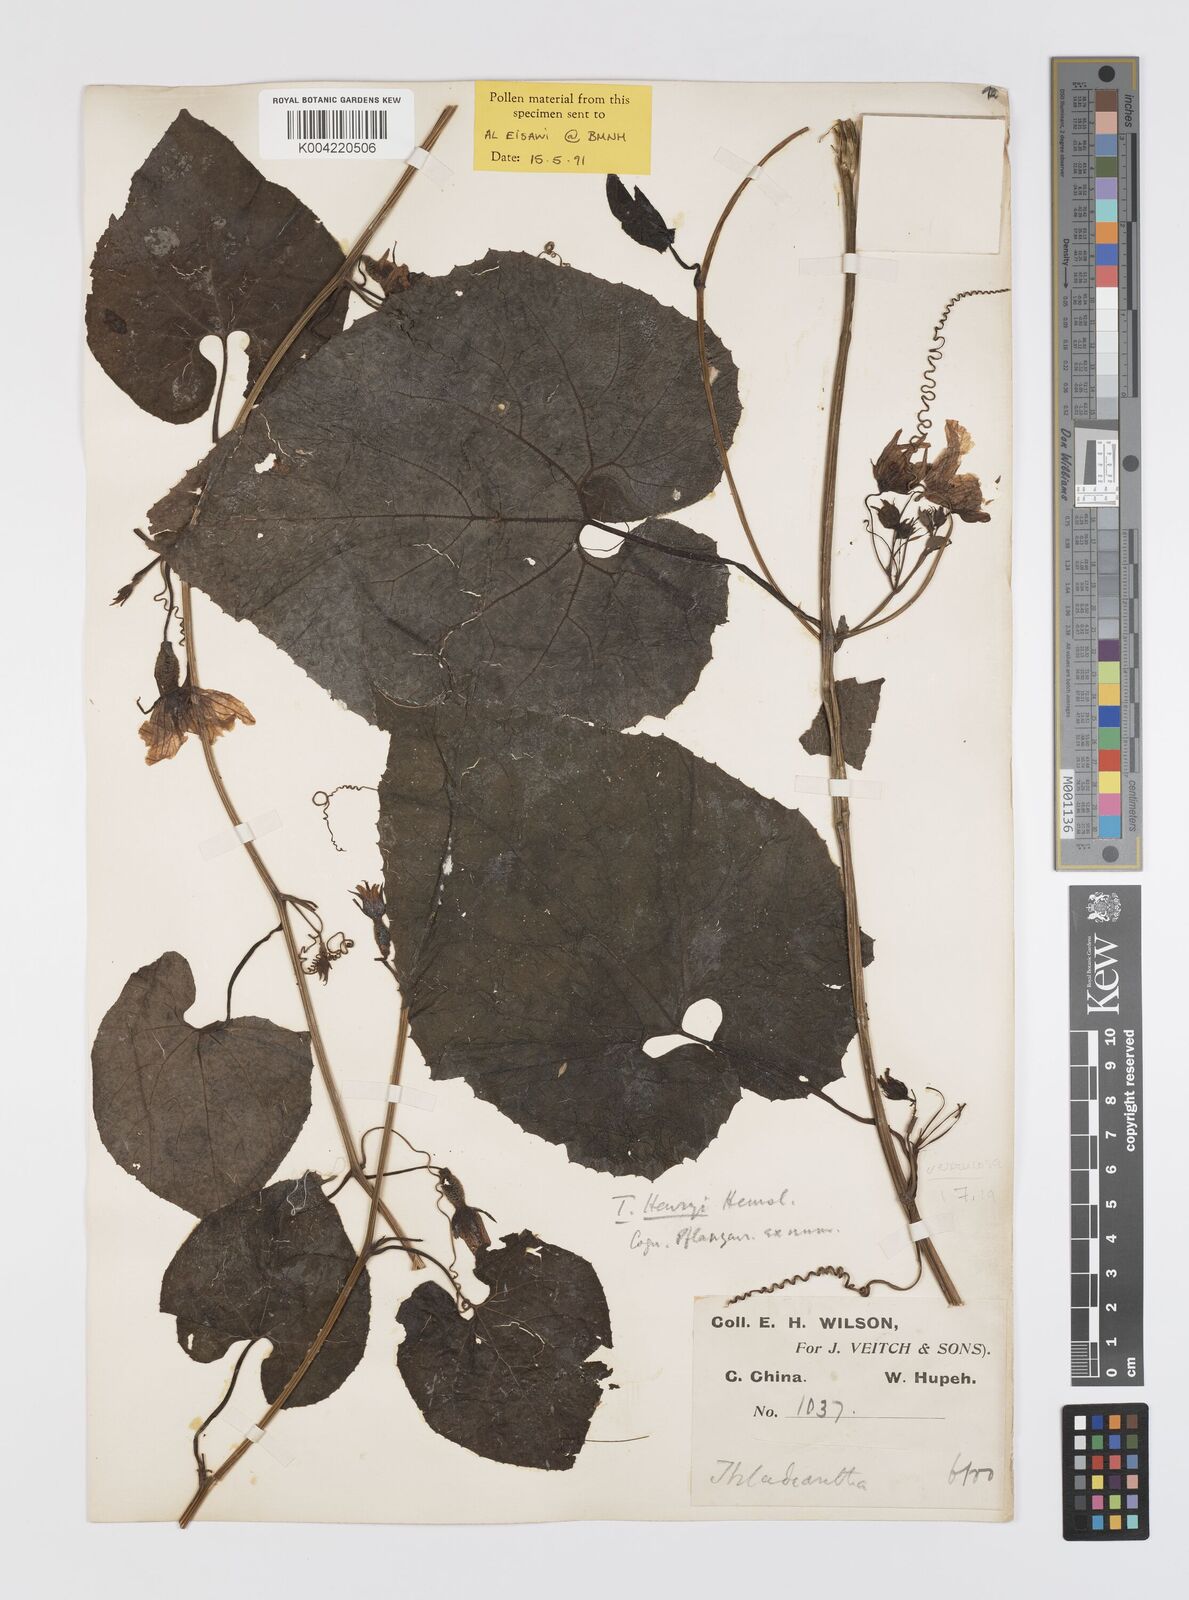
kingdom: Plantae
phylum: Tracheophyta
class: Magnoliopsida
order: Cucurbitales
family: Cucurbitaceae
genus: Thladiantha
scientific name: Thladiantha henryi
